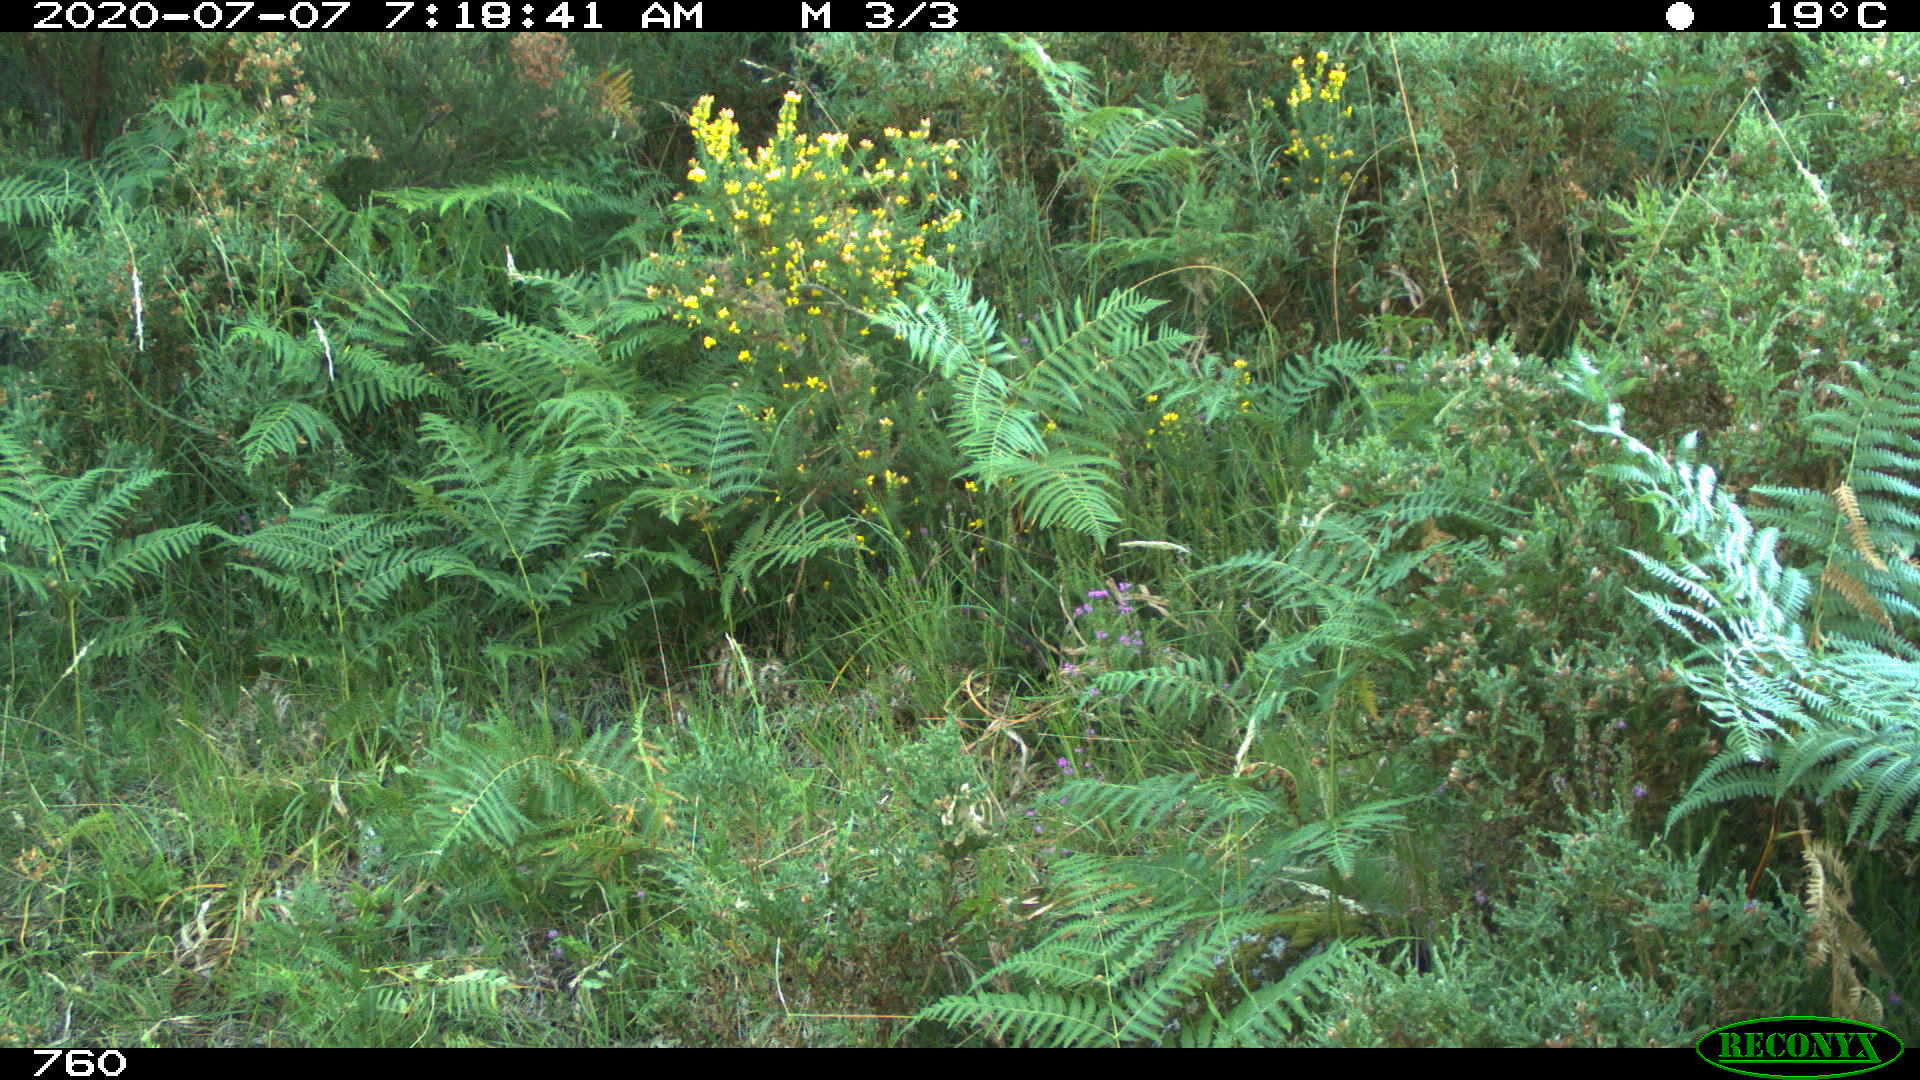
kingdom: Animalia
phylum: Chordata
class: Mammalia
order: Artiodactyla
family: Suidae
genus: Sus
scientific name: Sus scrofa
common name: Wild boar
